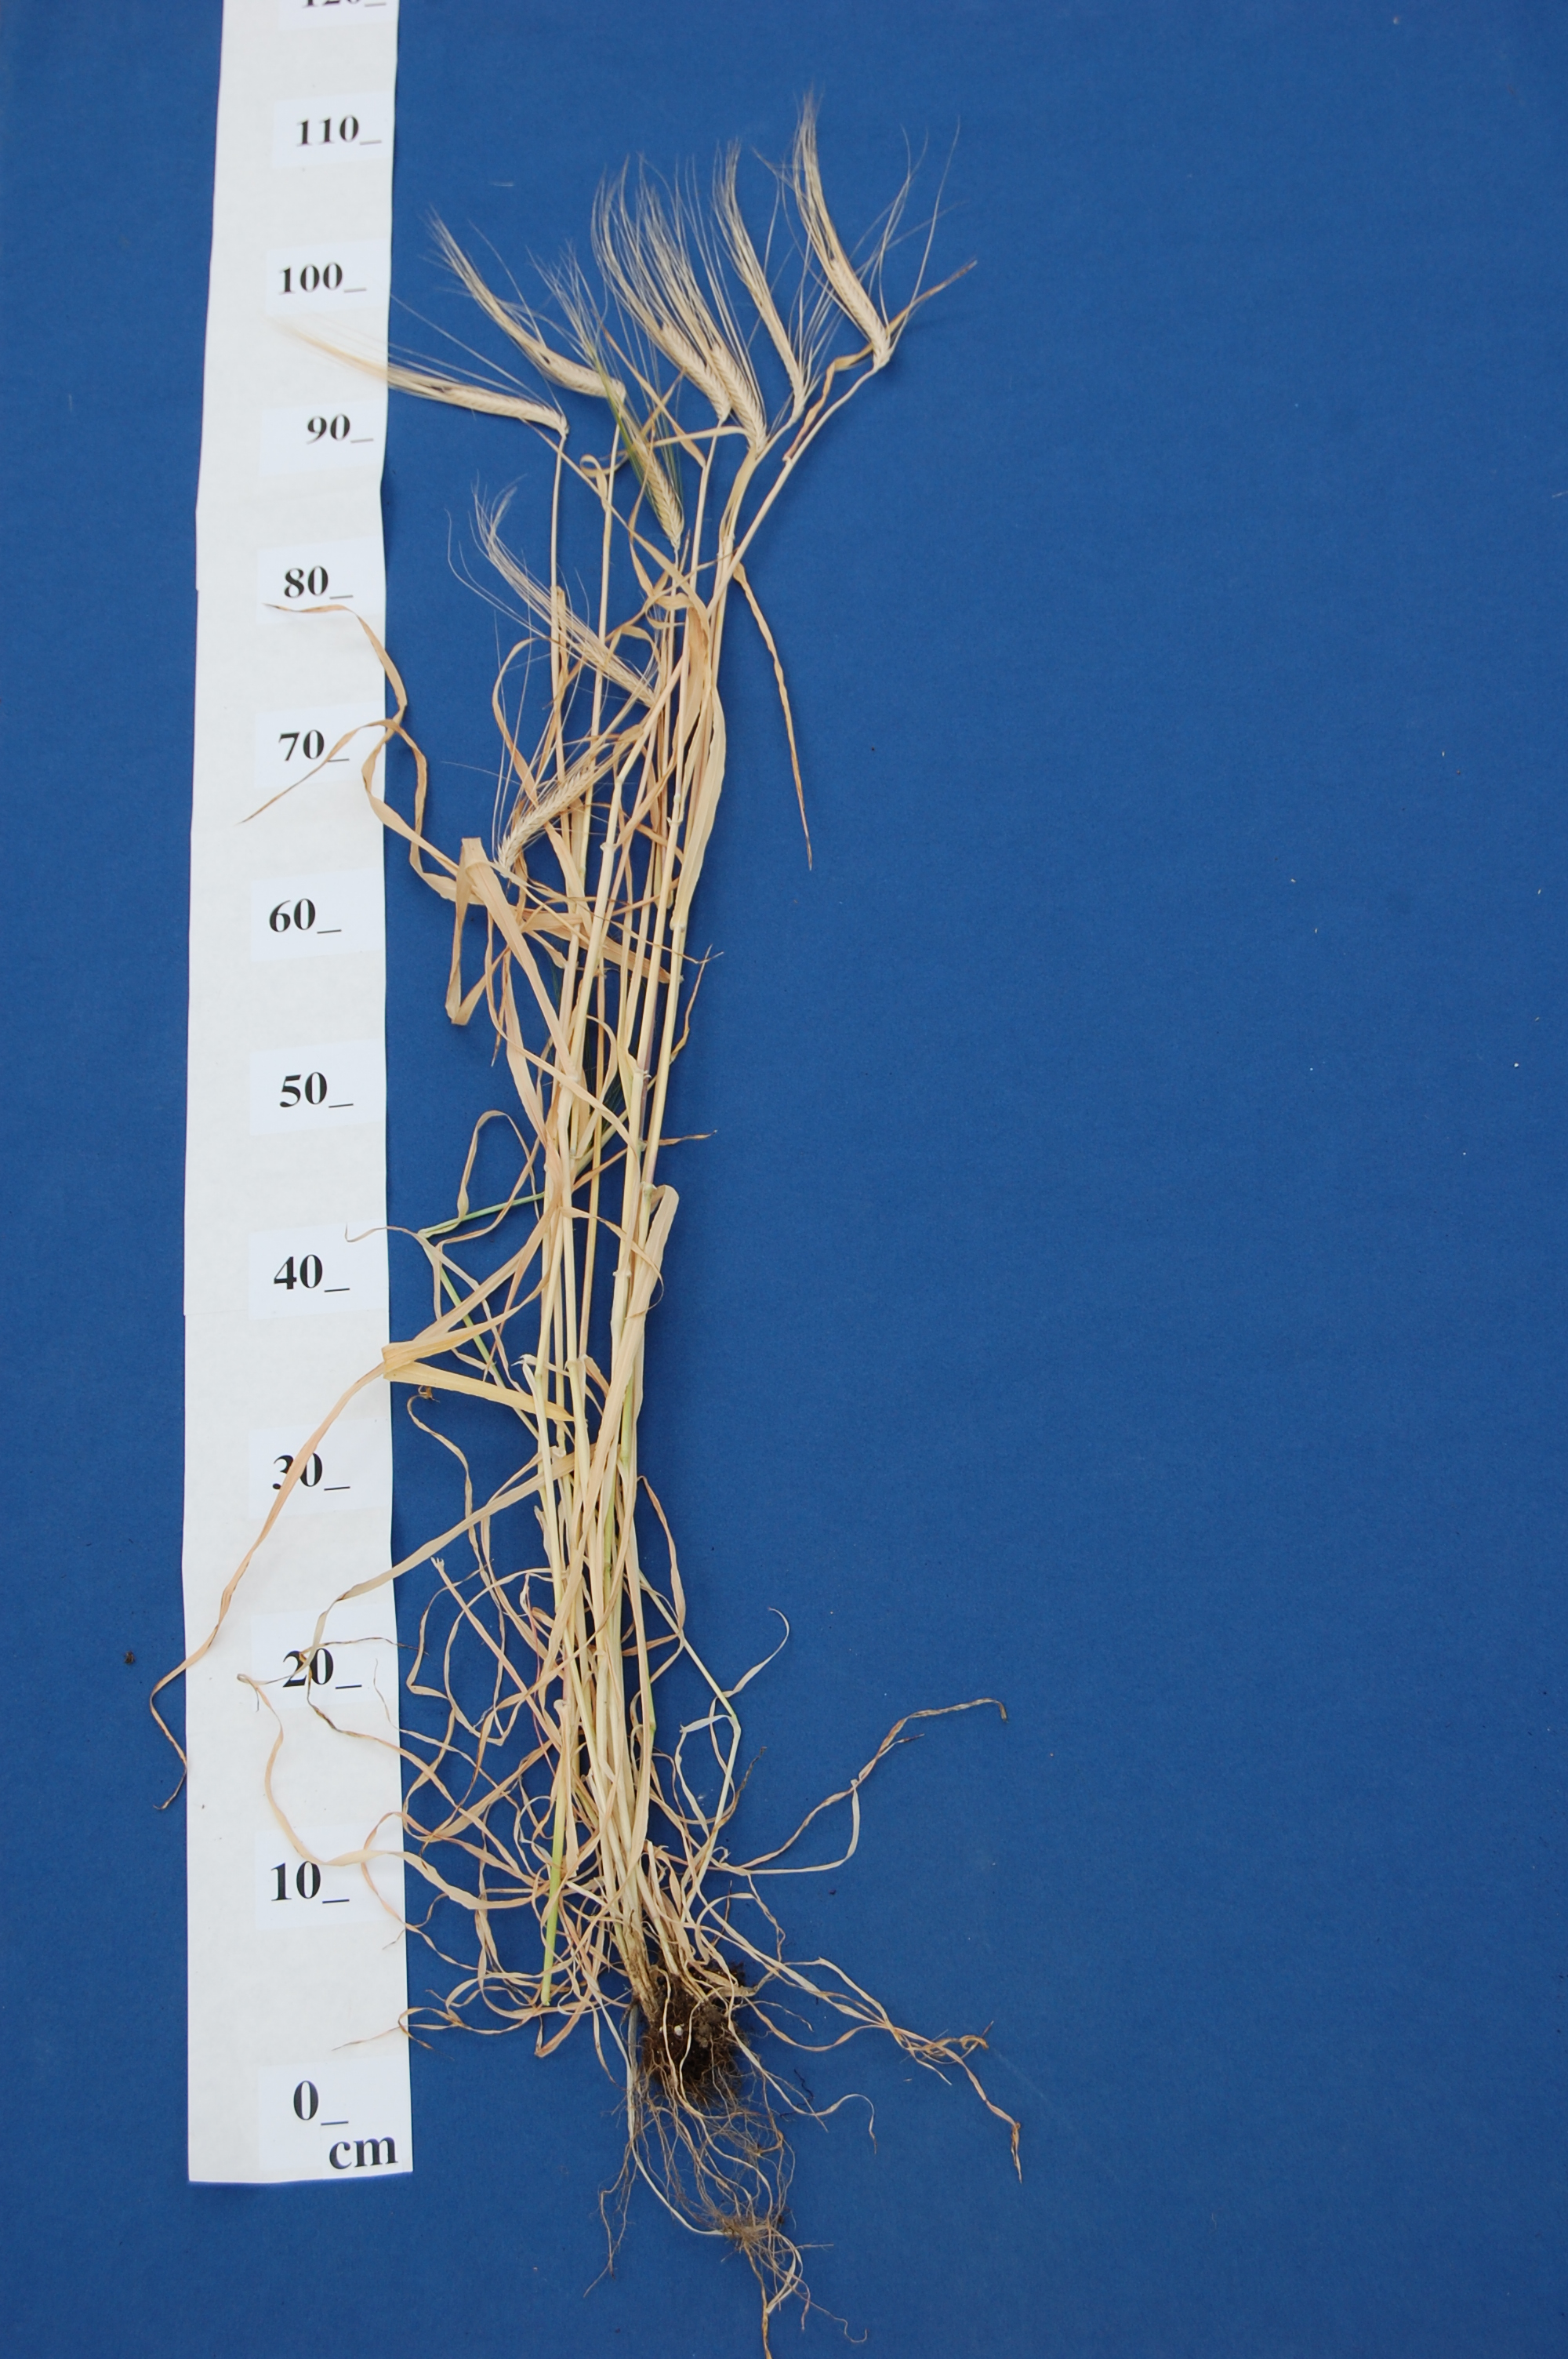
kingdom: Plantae
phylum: Tracheophyta
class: Liliopsida
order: Poales
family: Poaceae
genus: Hordeum
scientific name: Hordeum vulgare
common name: Common barley
